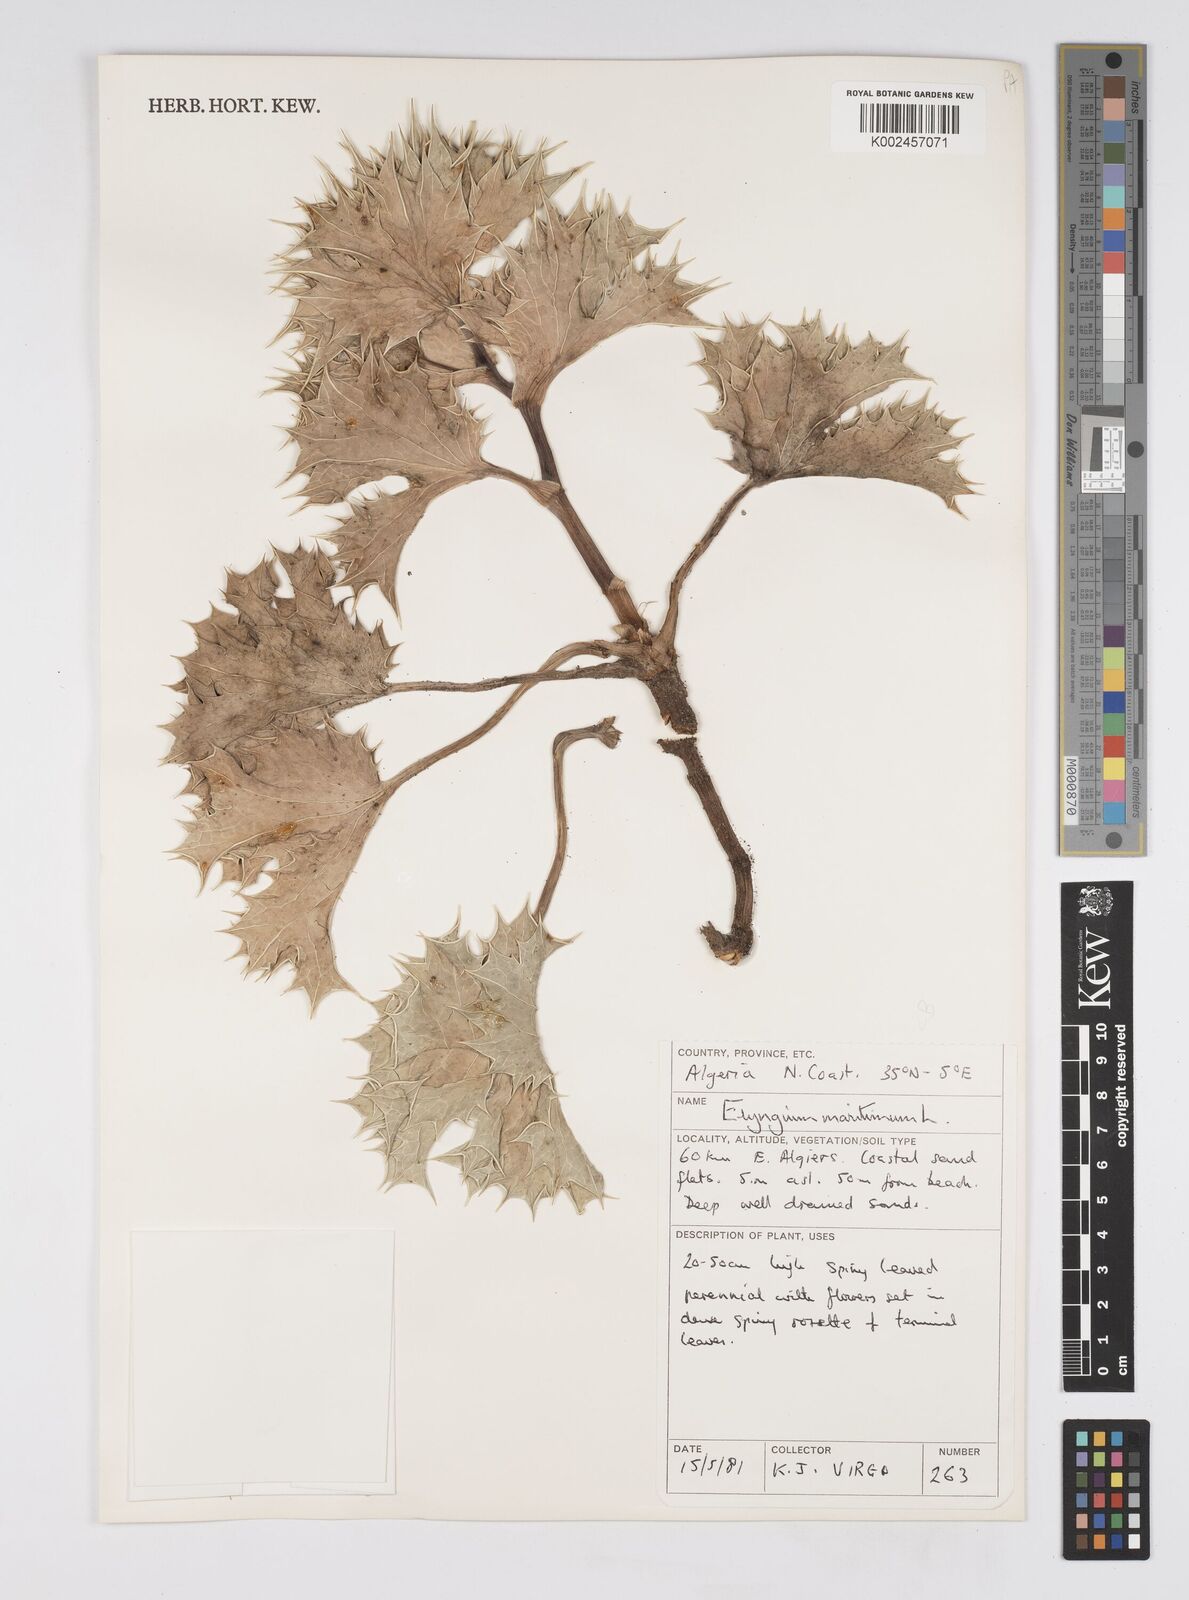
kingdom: Plantae
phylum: Tracheophyta
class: Magnoliopsida
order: Apiales
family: Apiaceae
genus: Eryngium
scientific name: Eryngium maritimum
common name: Sea-holly
